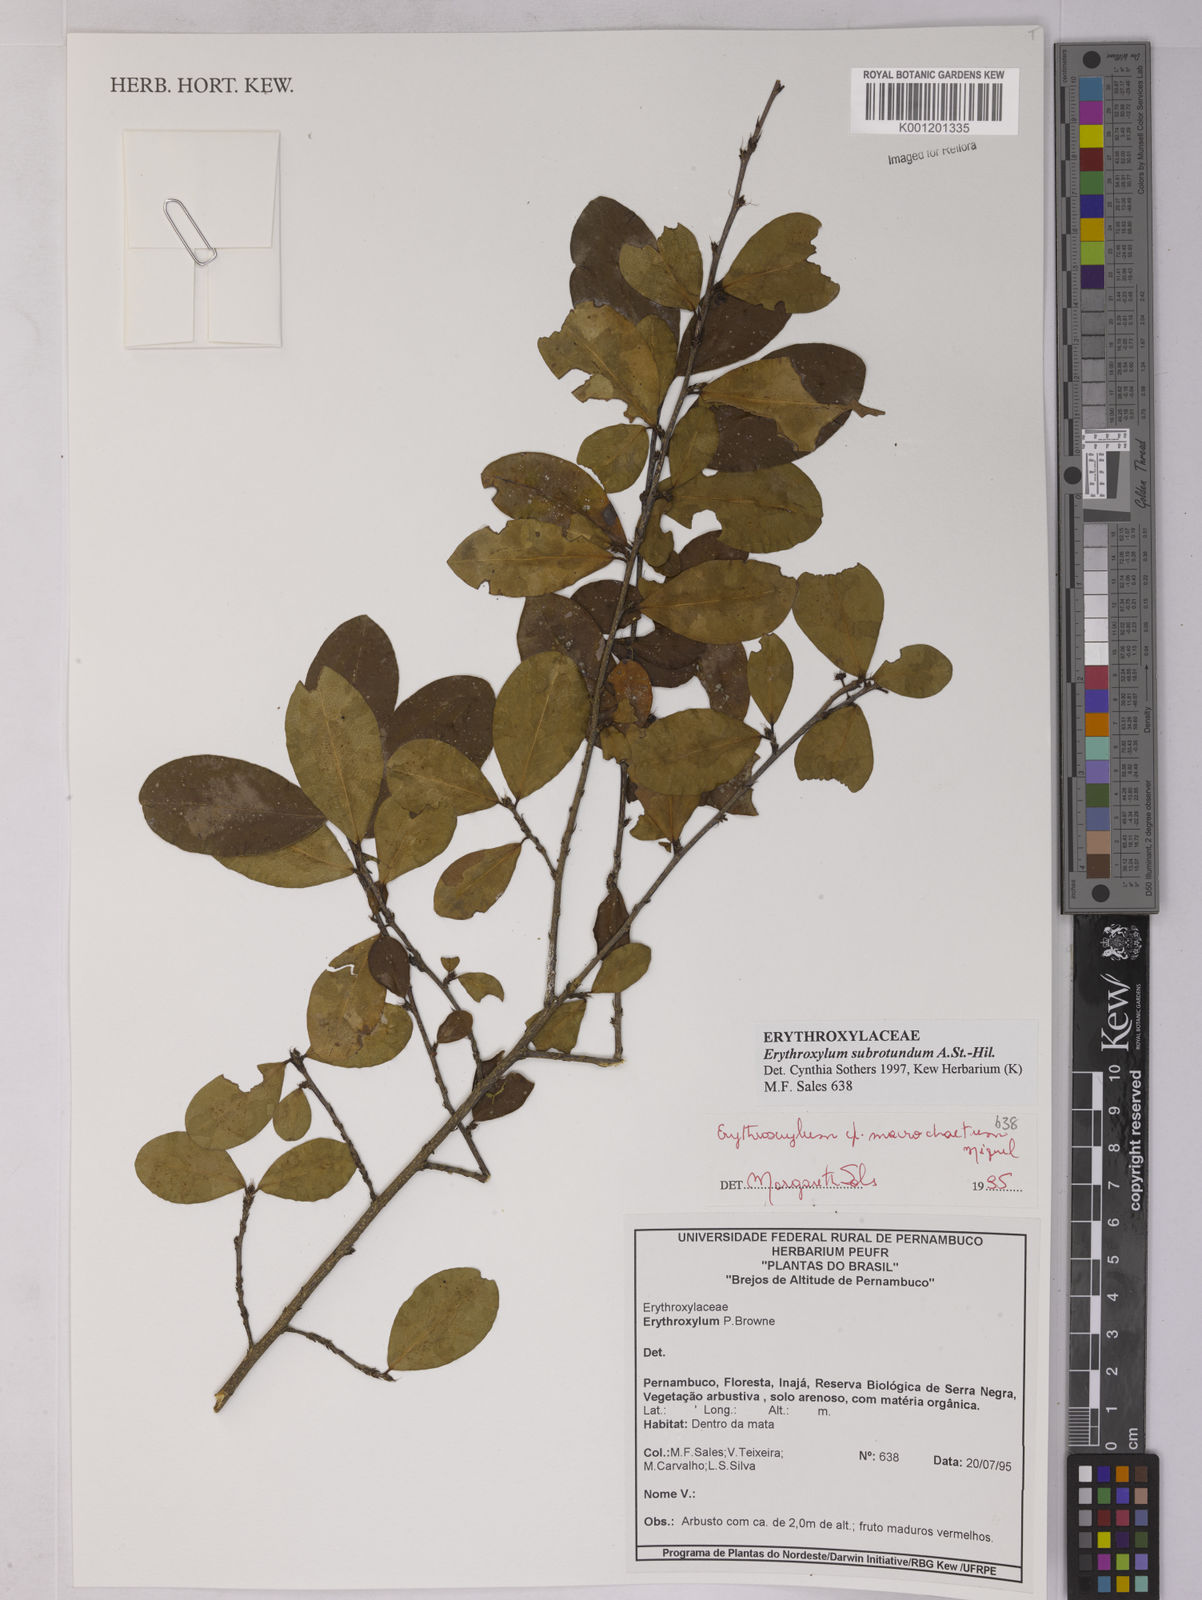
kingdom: Plantae
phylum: Tracheophyta
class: Magnoliopsida
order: Malpighiales
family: Erythroxylaceae
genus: Erythroxylum
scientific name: Erythroxylum subrotundum
